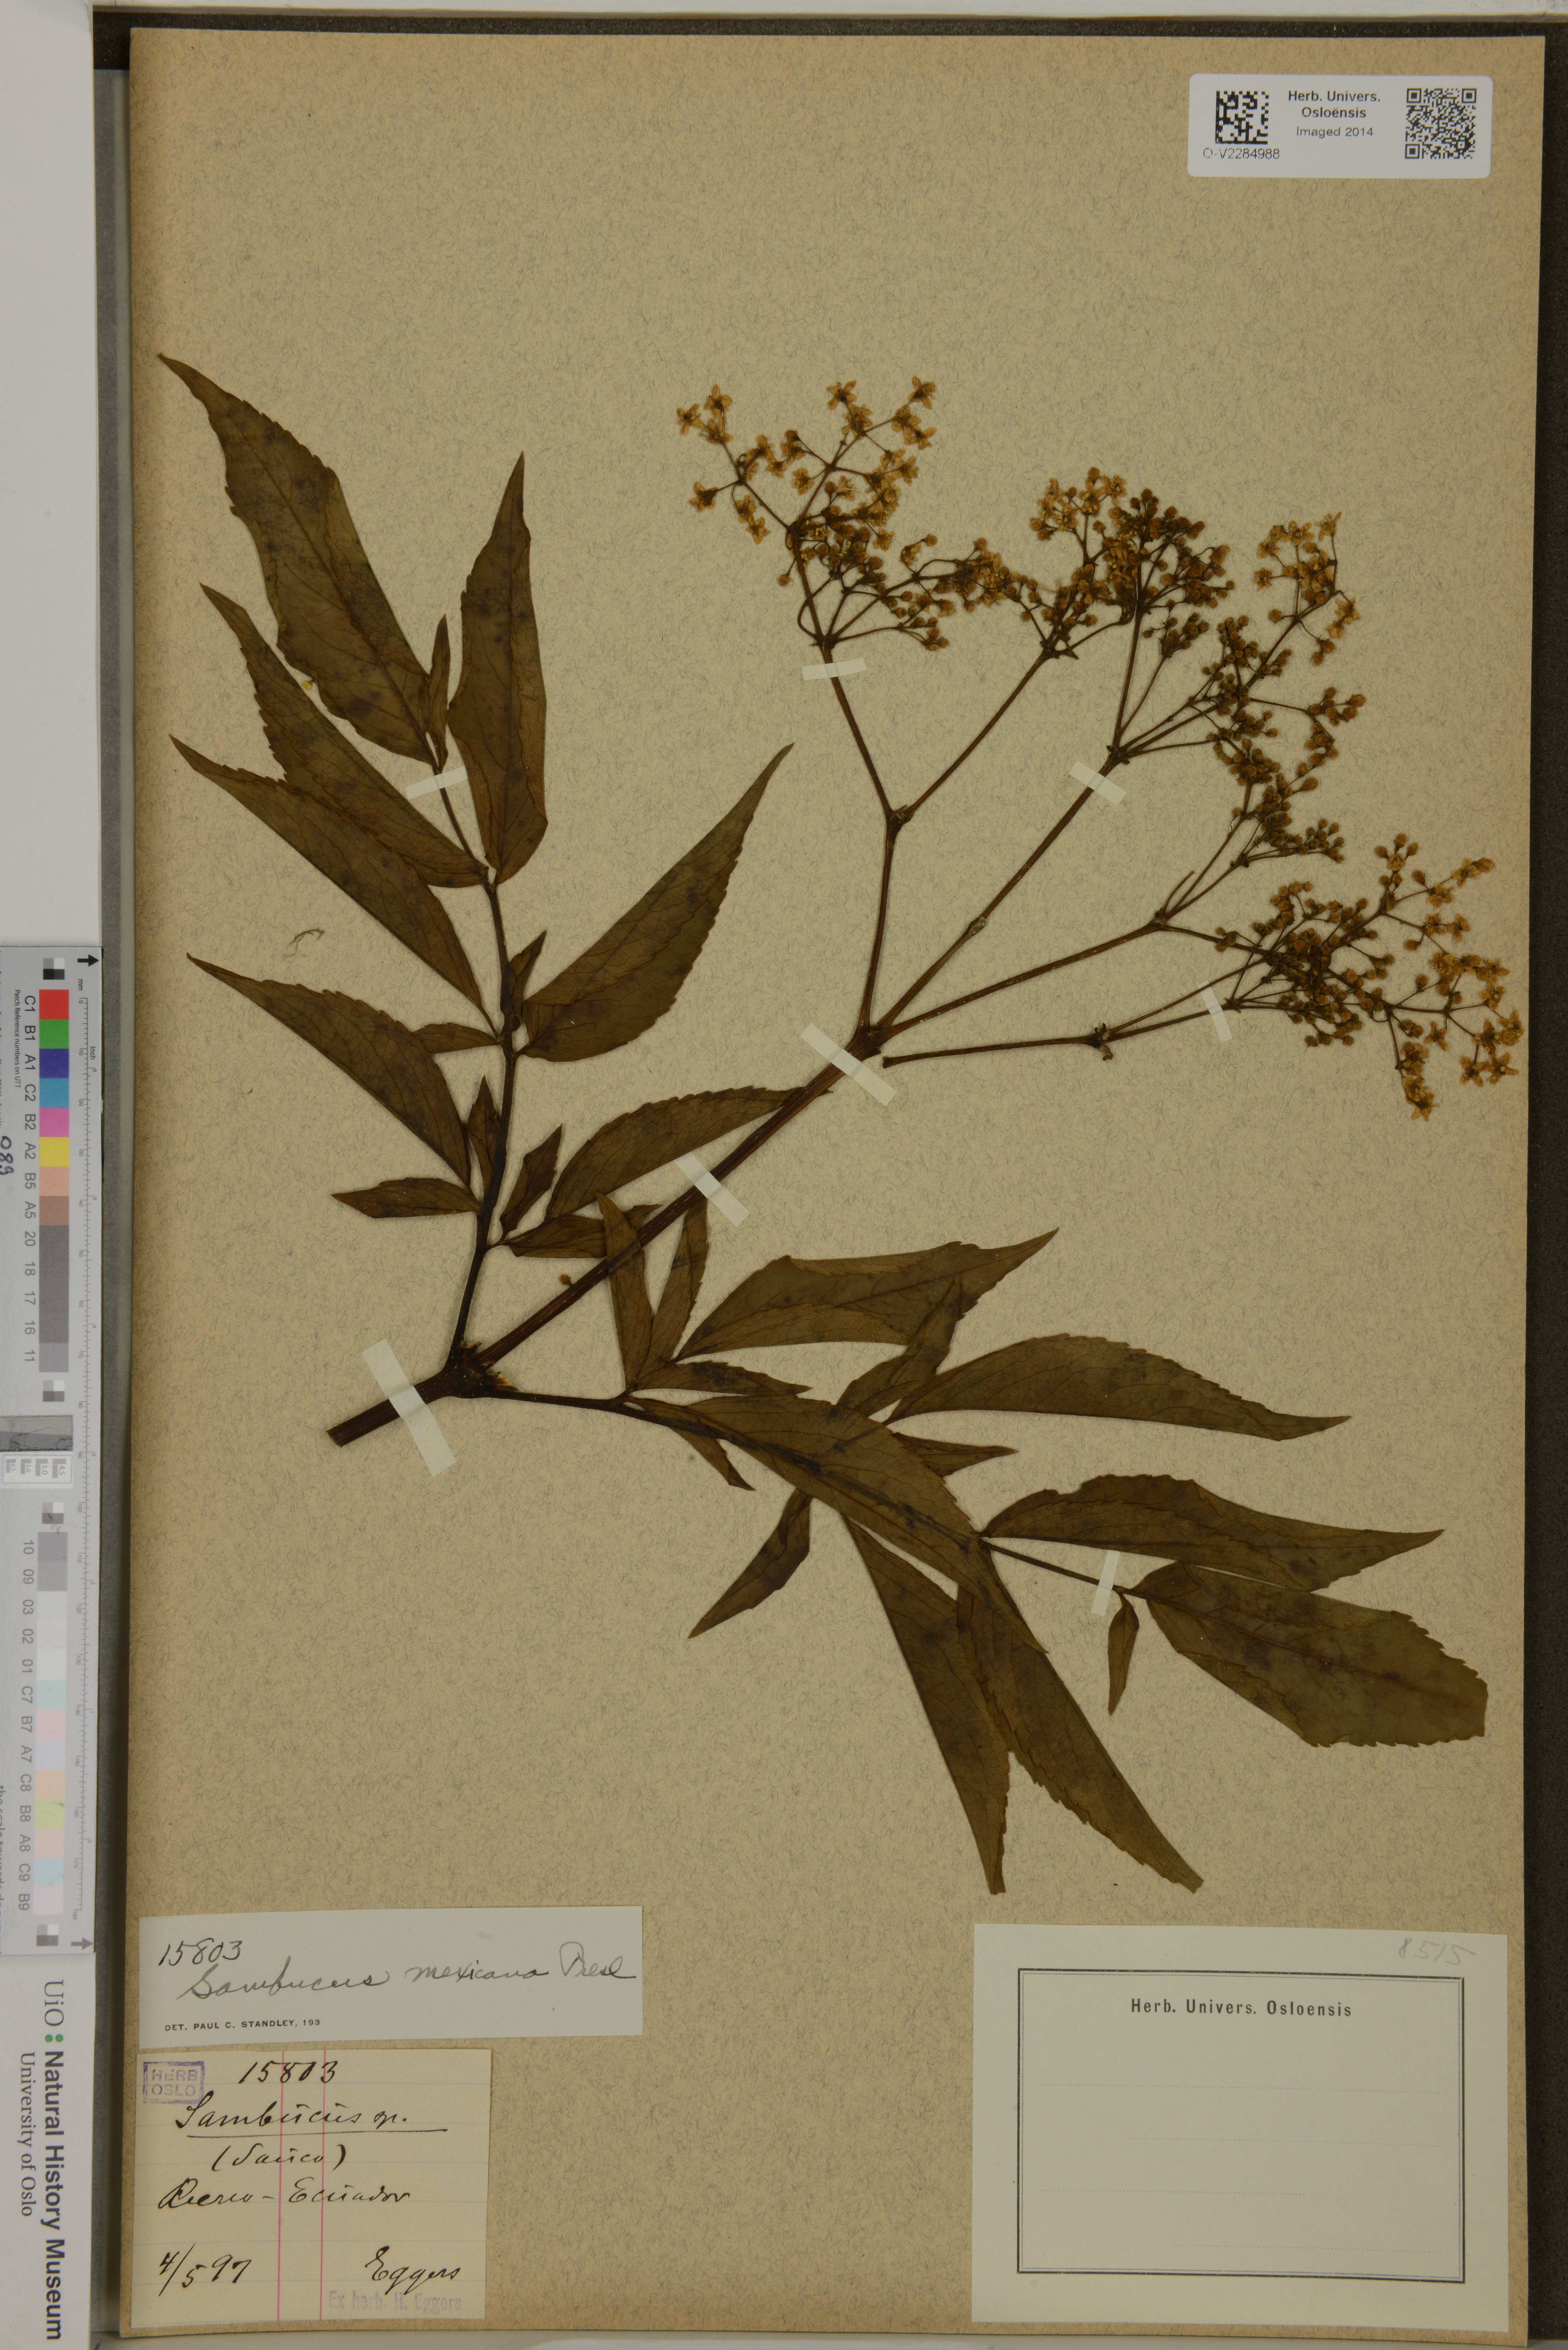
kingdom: Plantae
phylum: Tracheophyta
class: Magnoliopsida
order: Dipsacales
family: Viburnaceae
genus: Sambucus
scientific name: Sambucus mexicana
